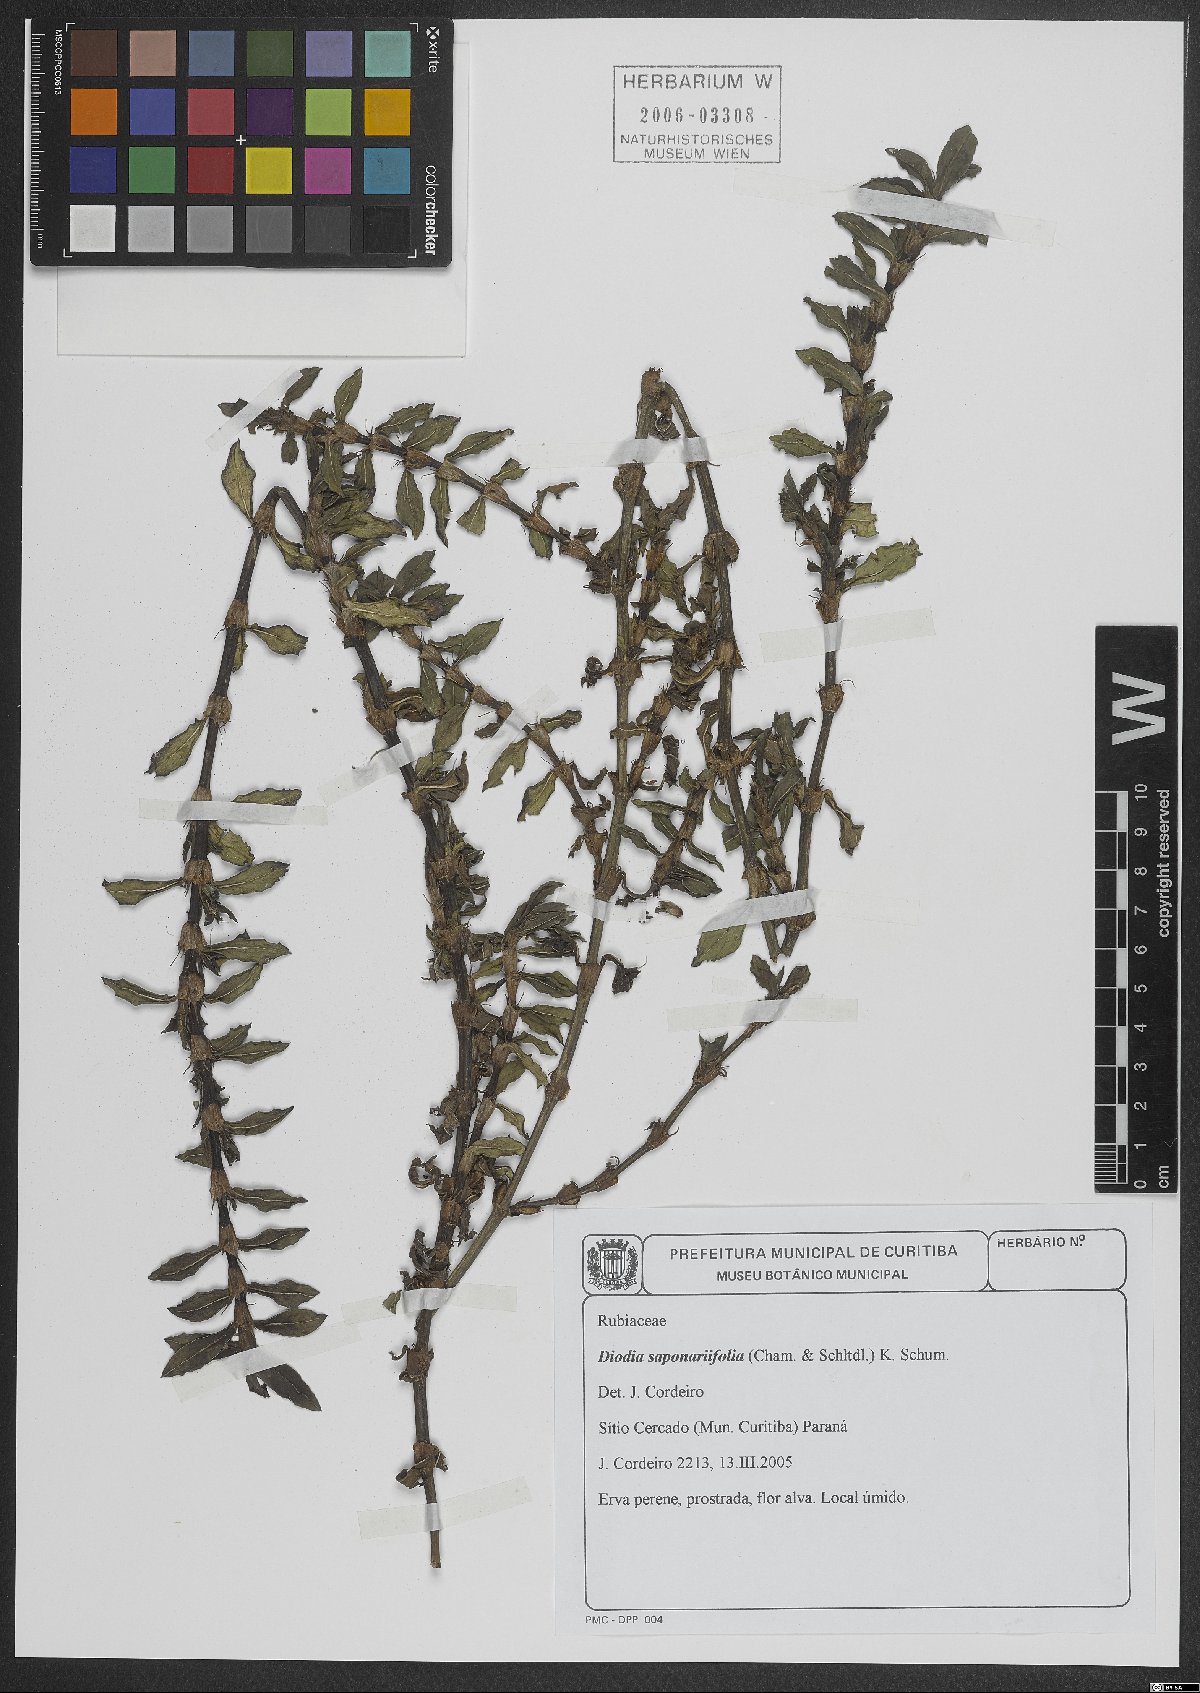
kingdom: Plantae
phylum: Tracheophyta
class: Magnoliopsida
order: Gentianales
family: Rubiaceae
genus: Diodia
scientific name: Diodia saponariifolia
